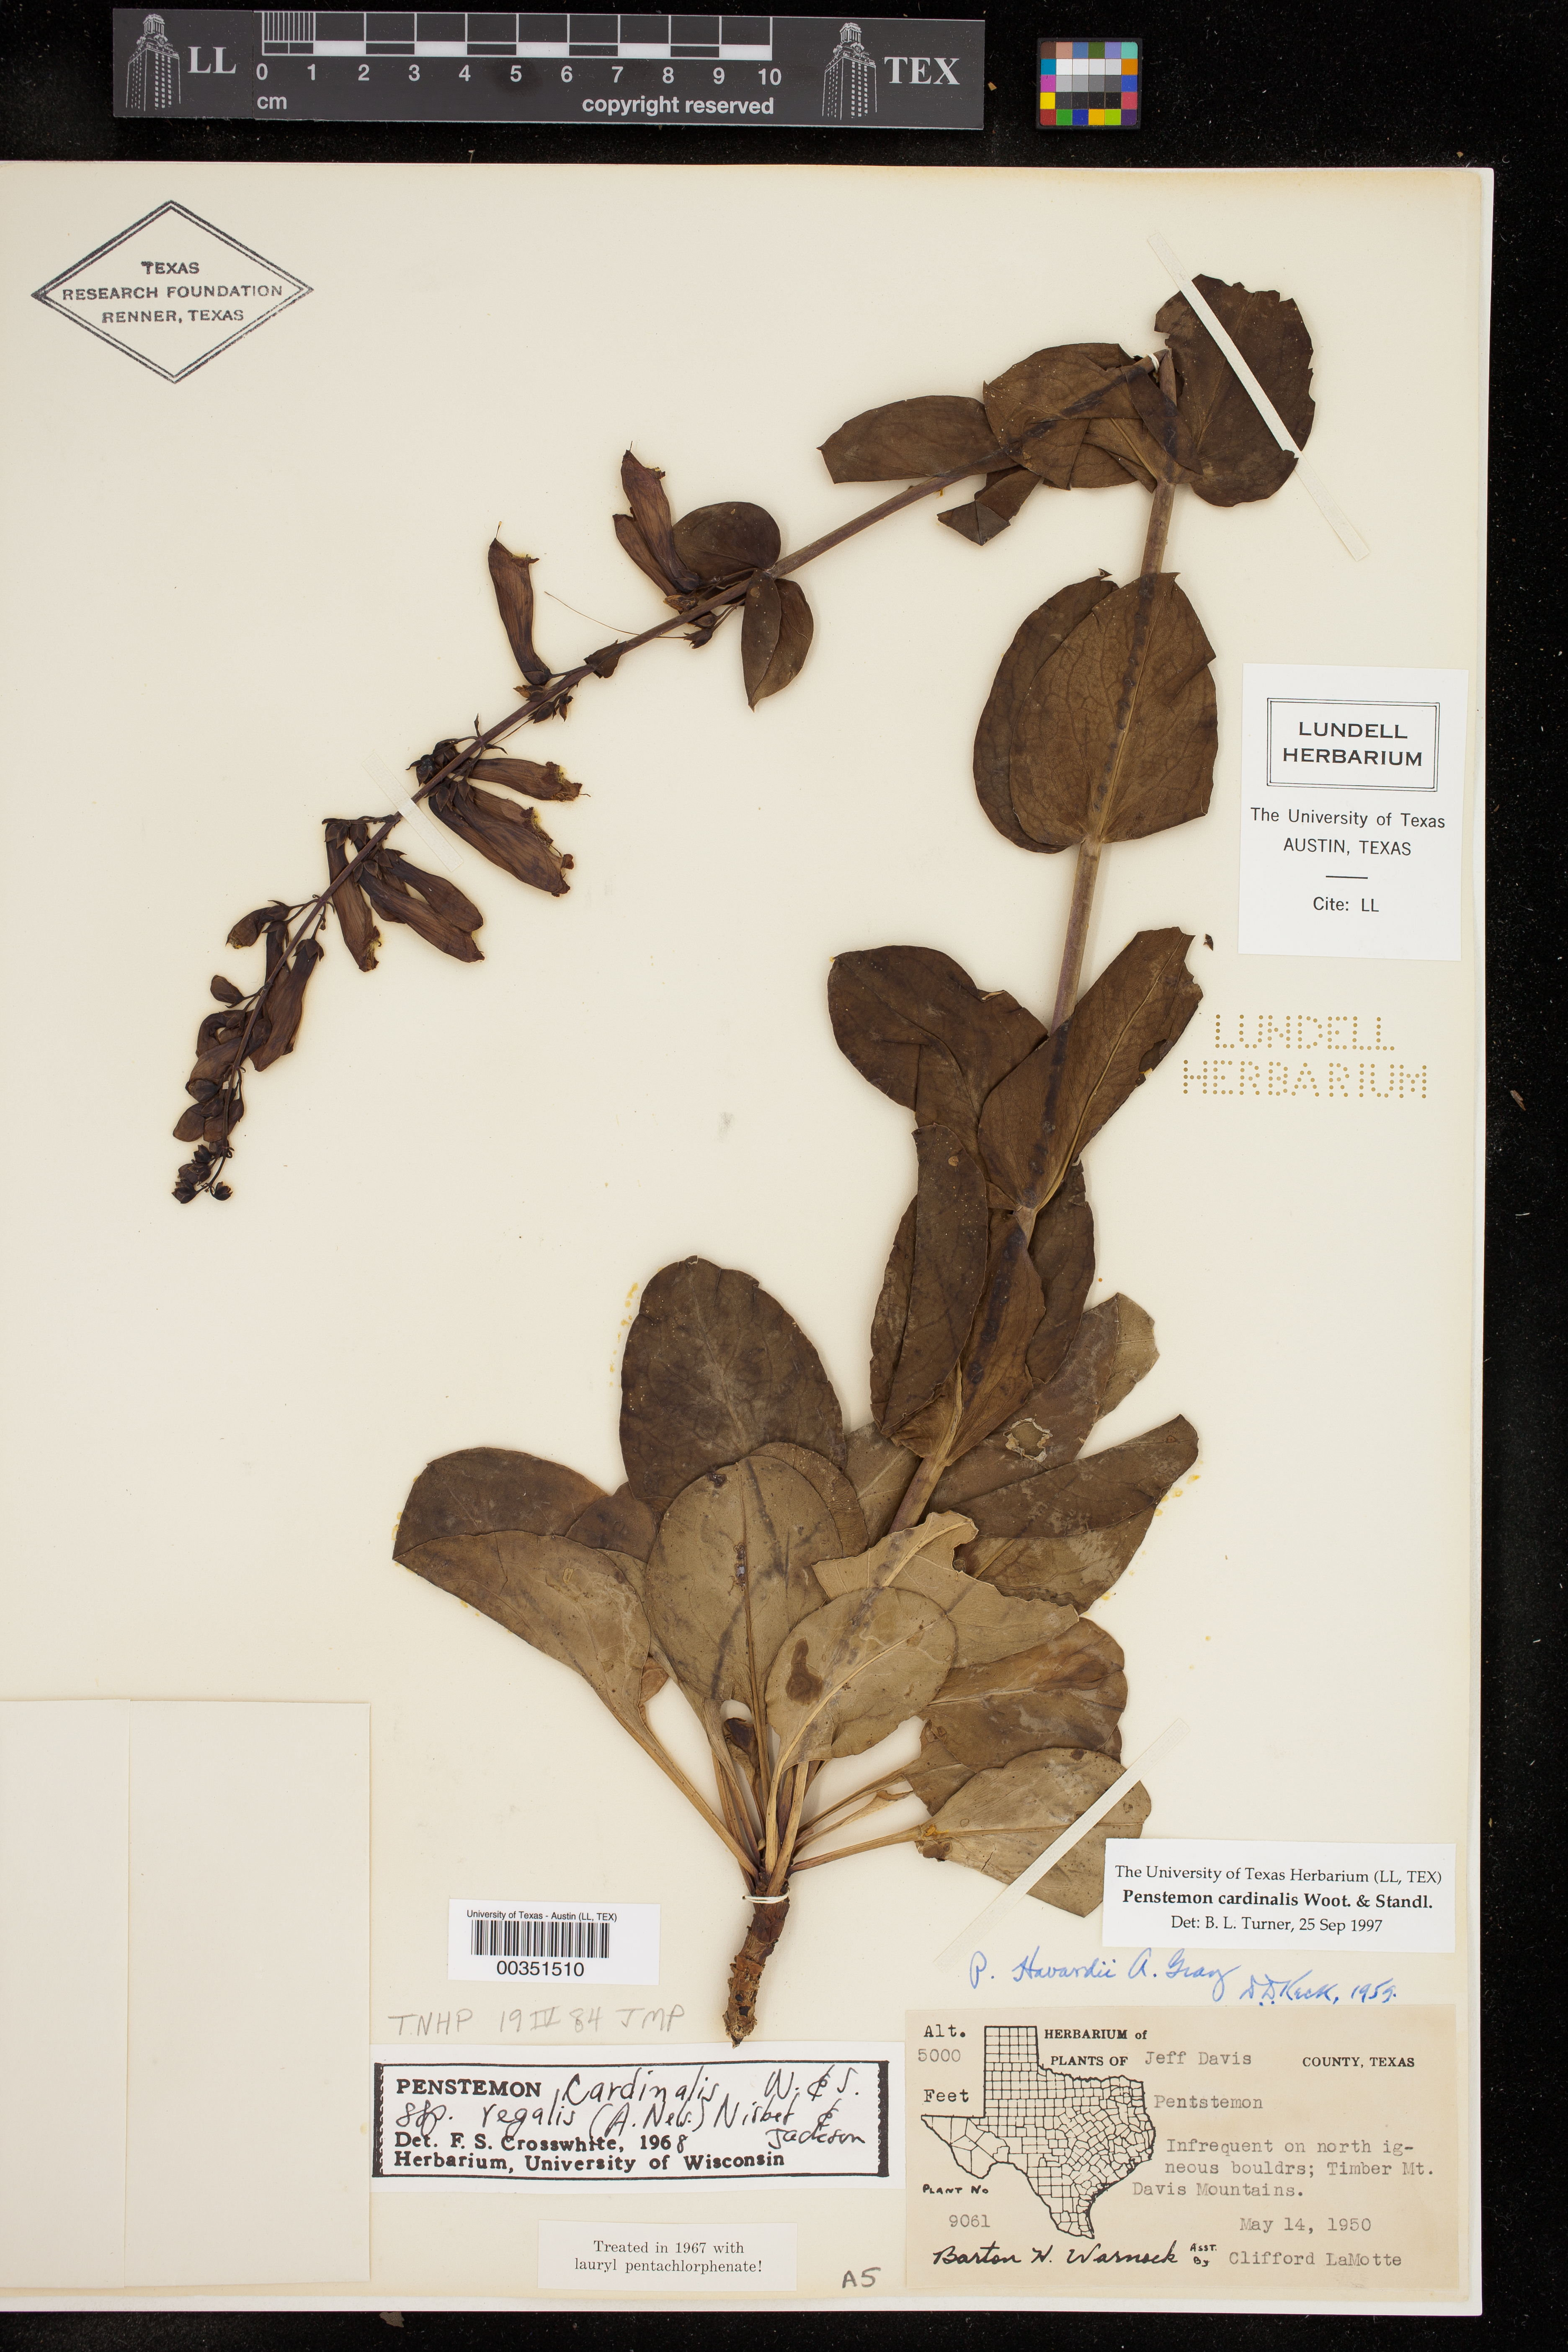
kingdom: Plantae
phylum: Tracheophyta
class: Magnoliopsida
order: Lamiales
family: Plantaginaceae
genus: Penstemon
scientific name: Penstemon cardinalis
